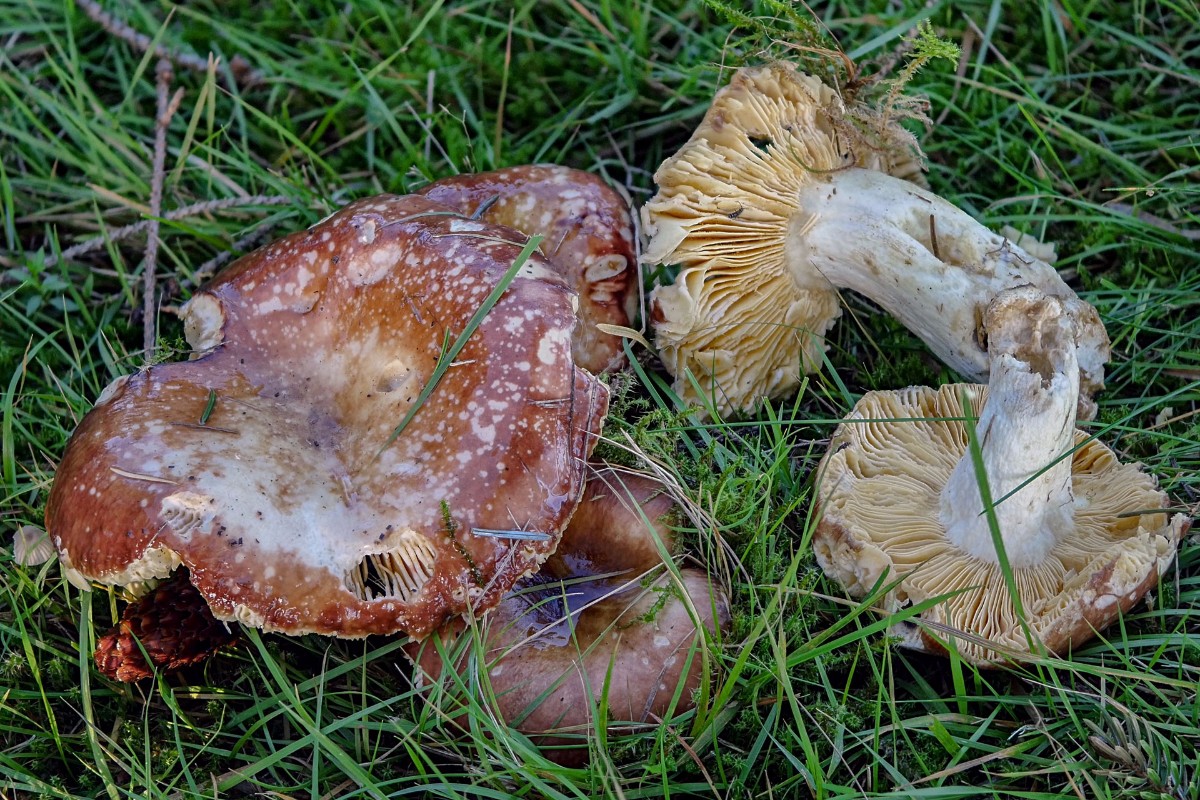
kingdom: Fungi
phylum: Basidiomycota
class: Agaricomycetes
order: Russulales
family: Russulaceae
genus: Russula
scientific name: Russula integra
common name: mandel-skørhat
